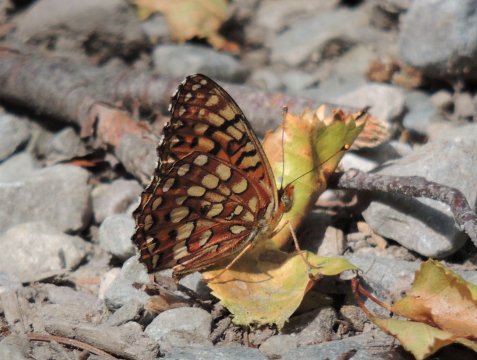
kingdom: Animalia
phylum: Arthropoda
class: Insecta
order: Lepidoptera
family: Nymphalidae
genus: Speyeria
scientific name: Speyeria hydaspe
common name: Hydaspe Fritillary
